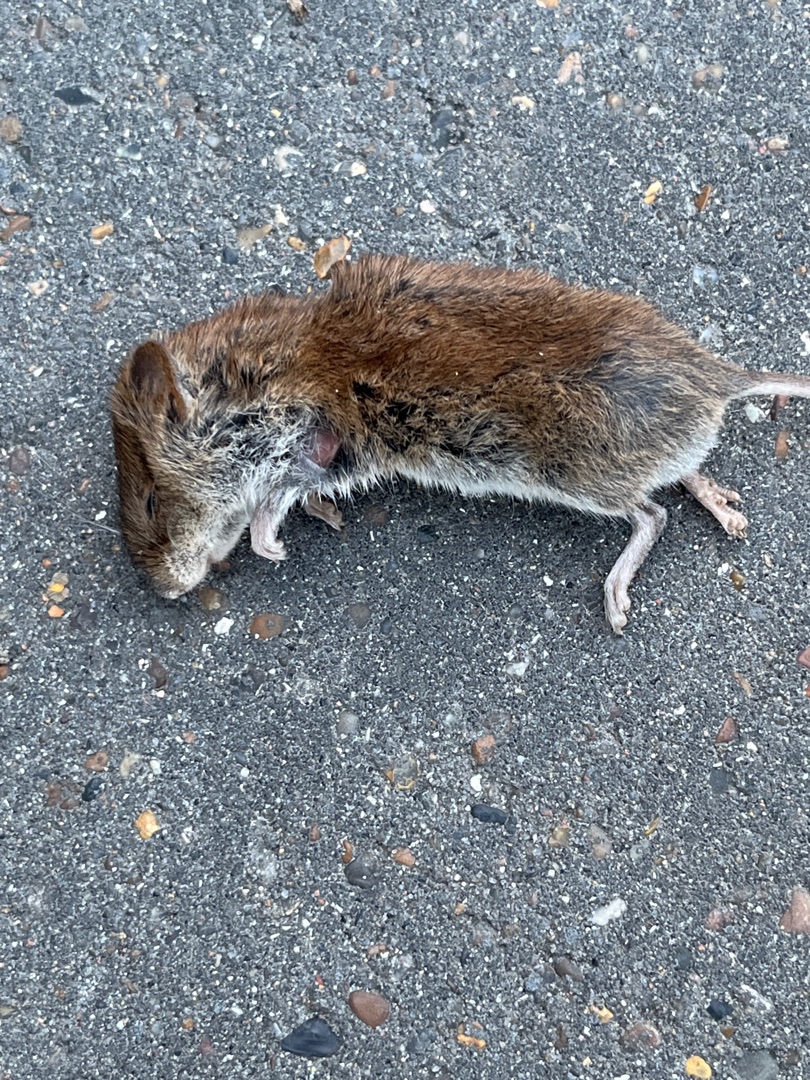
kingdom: Animalia
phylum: Chordata
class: Mammalia
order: Rodentia
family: Cricetidae
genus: Myodes
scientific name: Myodes glareolus
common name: Rødmus
